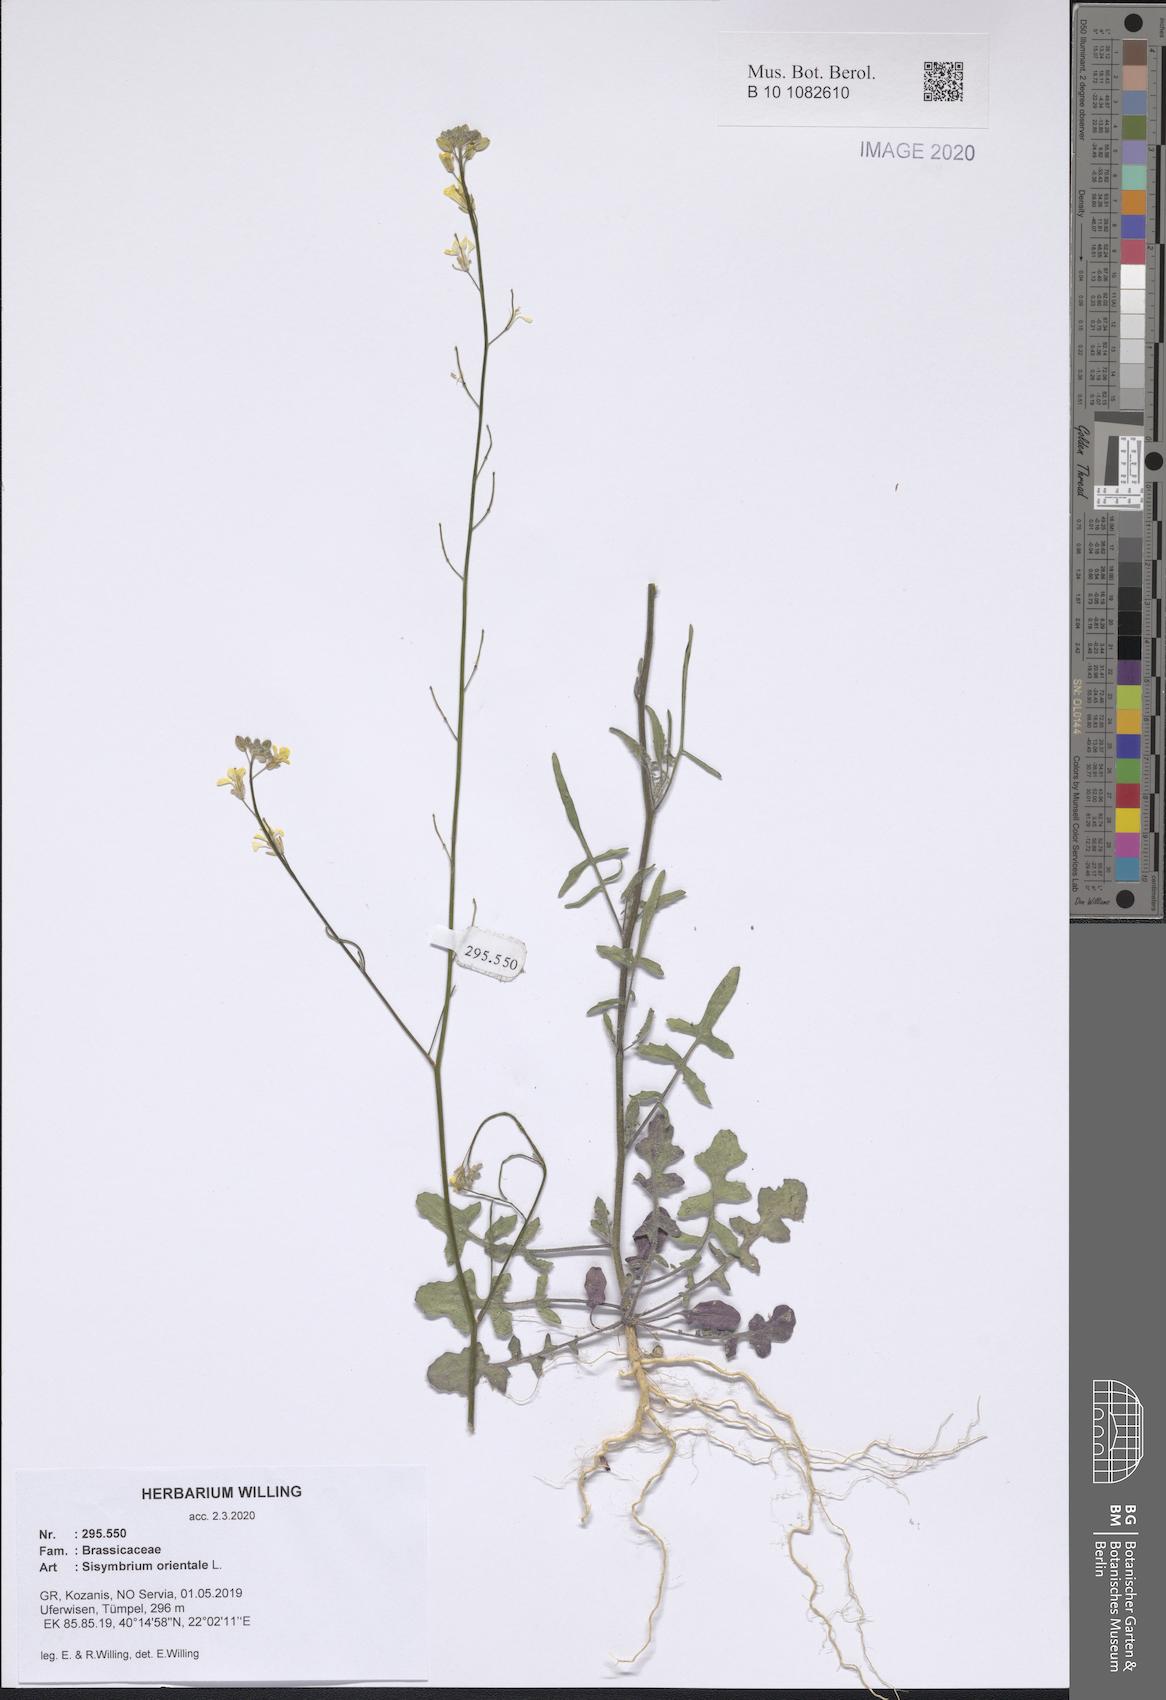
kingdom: Plantae
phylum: Tracheophyta
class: Magnoliopsida
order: Brassicales
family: Brassicaceae
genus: Sisymbrium
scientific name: Sisymbrium orientale
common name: Eastern rocket
